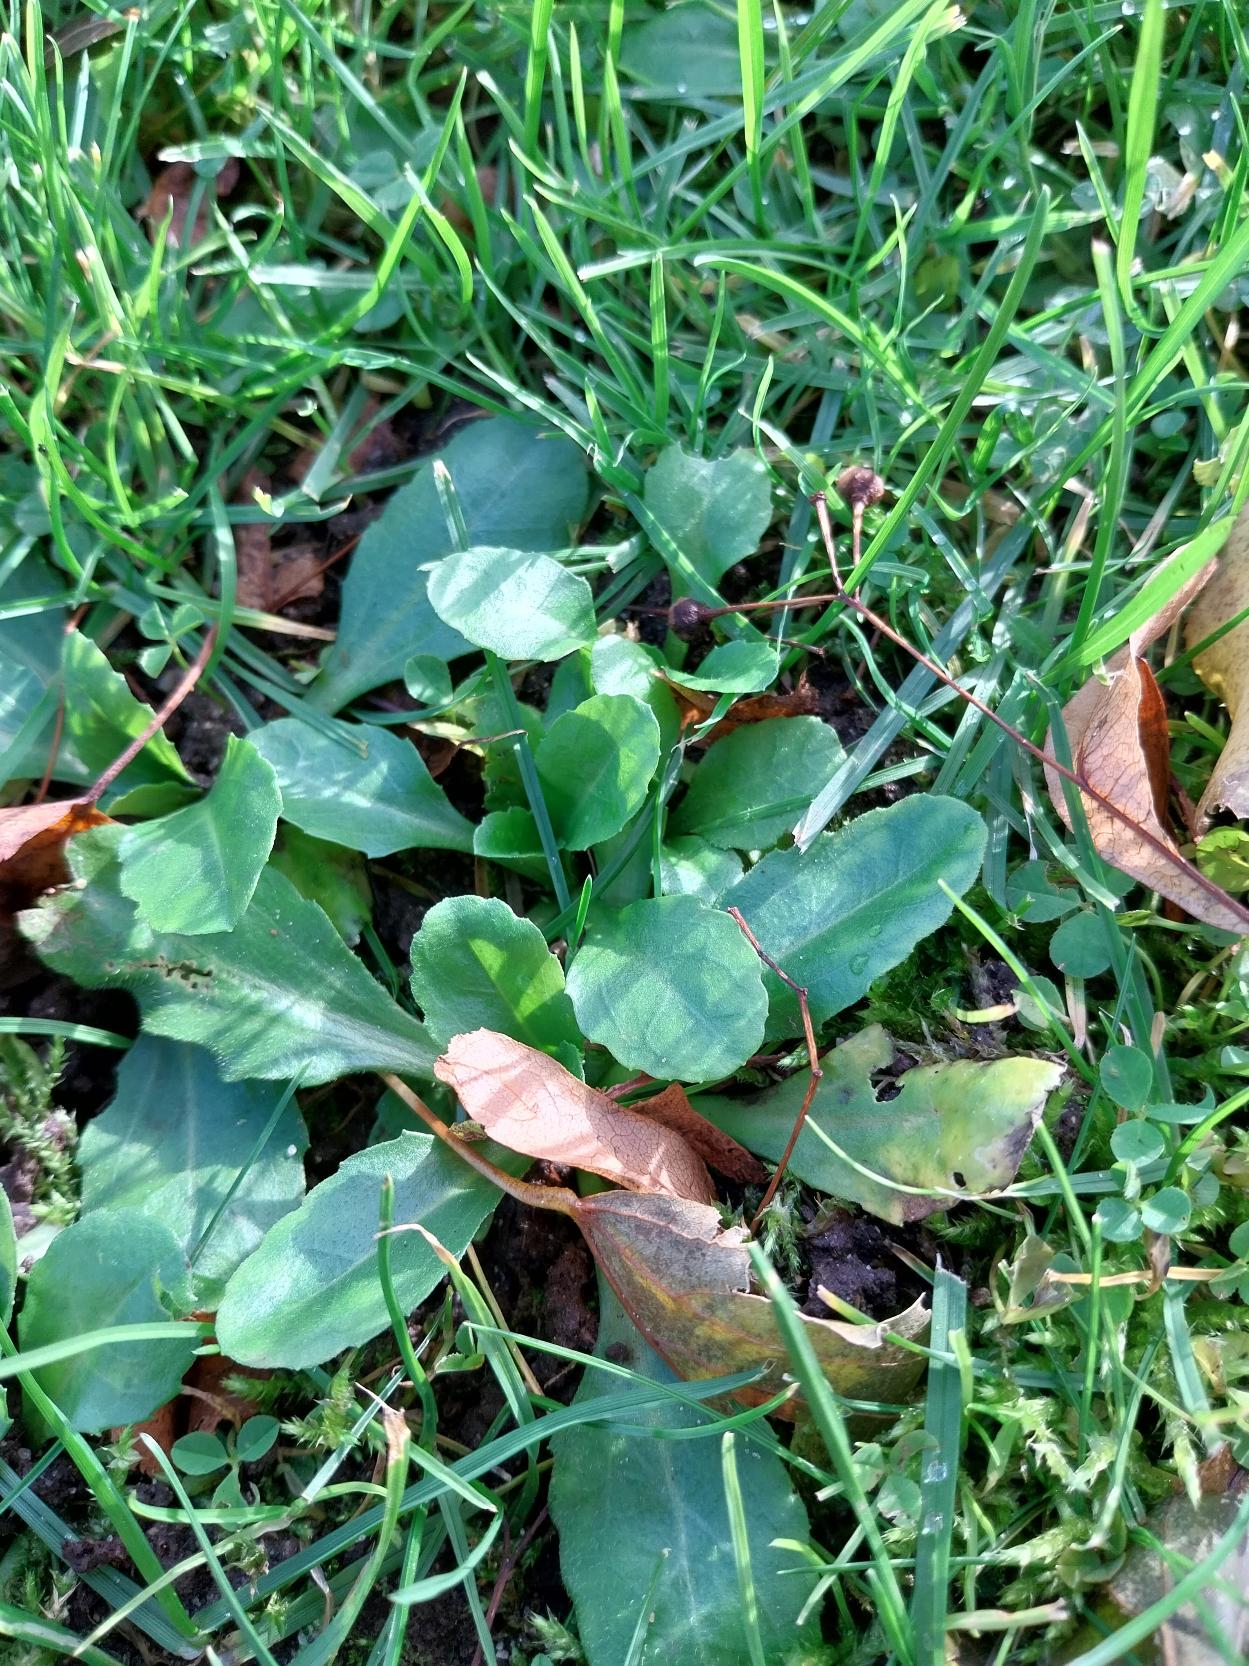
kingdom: Plantae
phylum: Tracheophyta
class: Magnoliopsida
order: Asterales
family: Asteraceae
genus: Bellis
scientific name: Bellis perennis
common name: Tusindfryd
